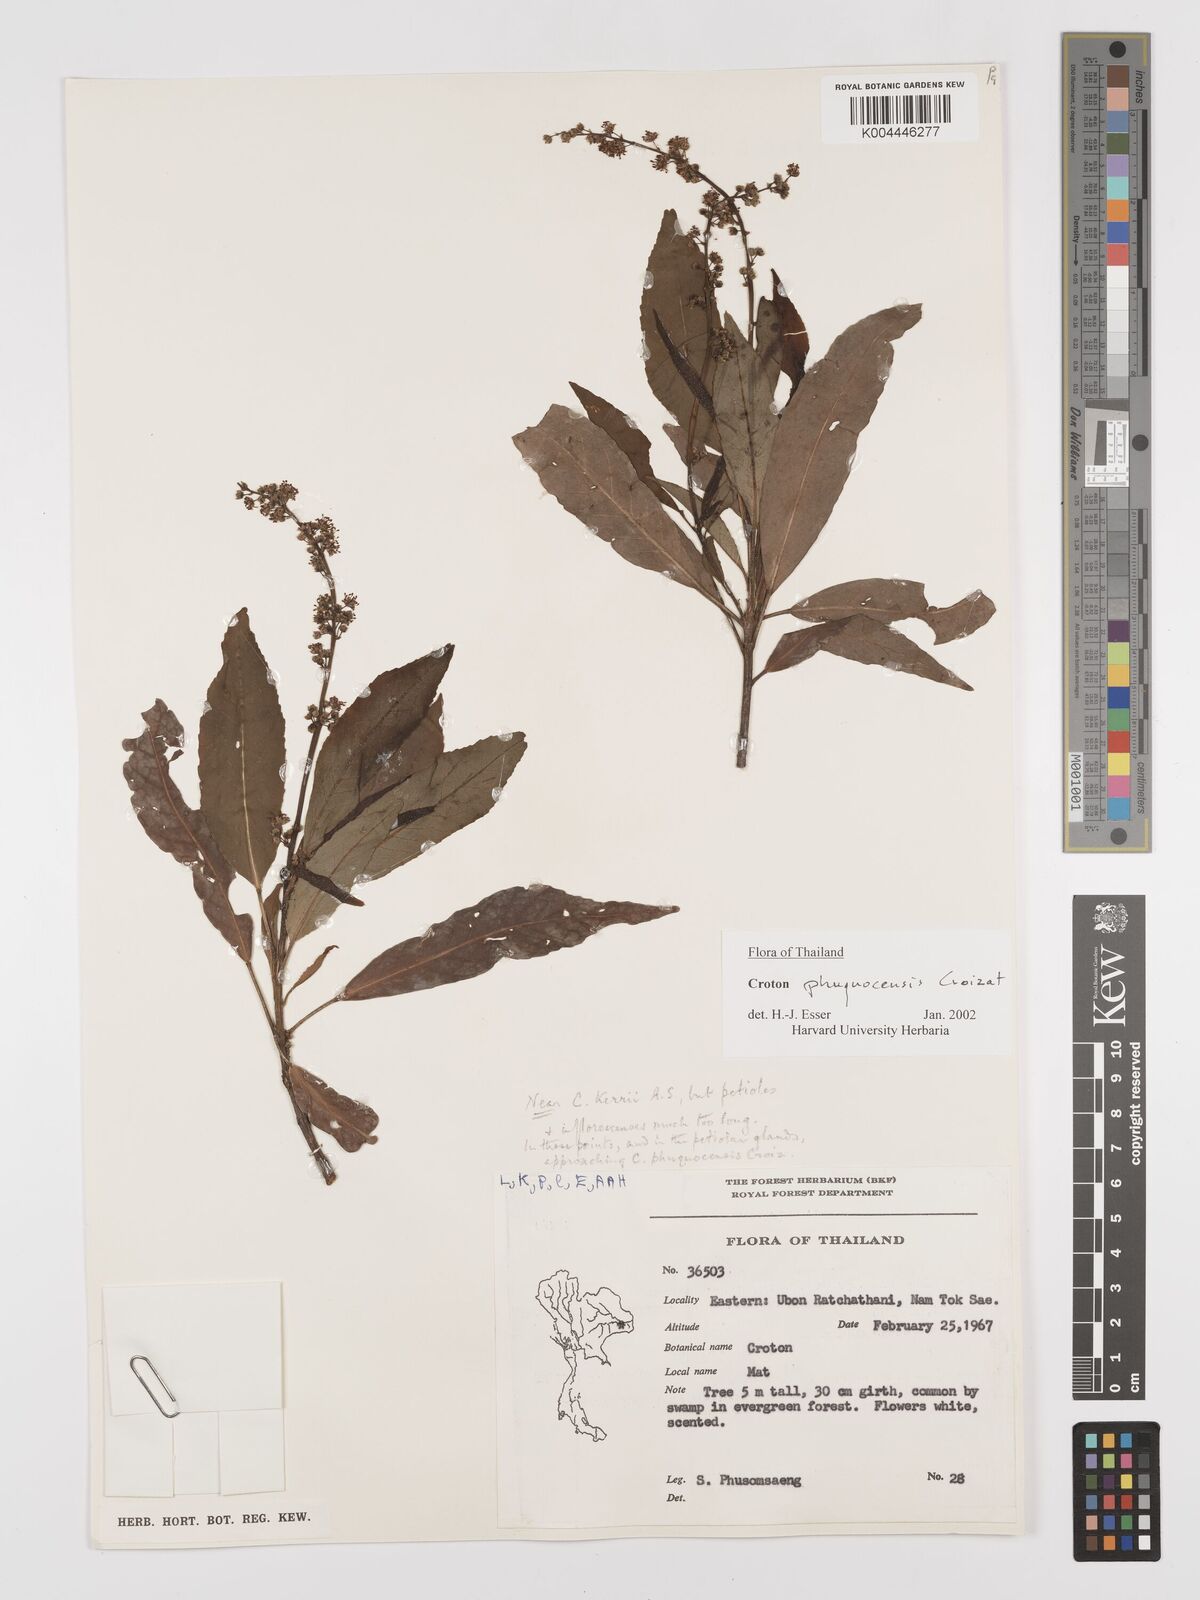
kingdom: Plantae
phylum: Tracheophyta
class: Magnoliopsida
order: Malpighiales
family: Euphorbiaceae
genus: Croton
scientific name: Croton phuquocensis
